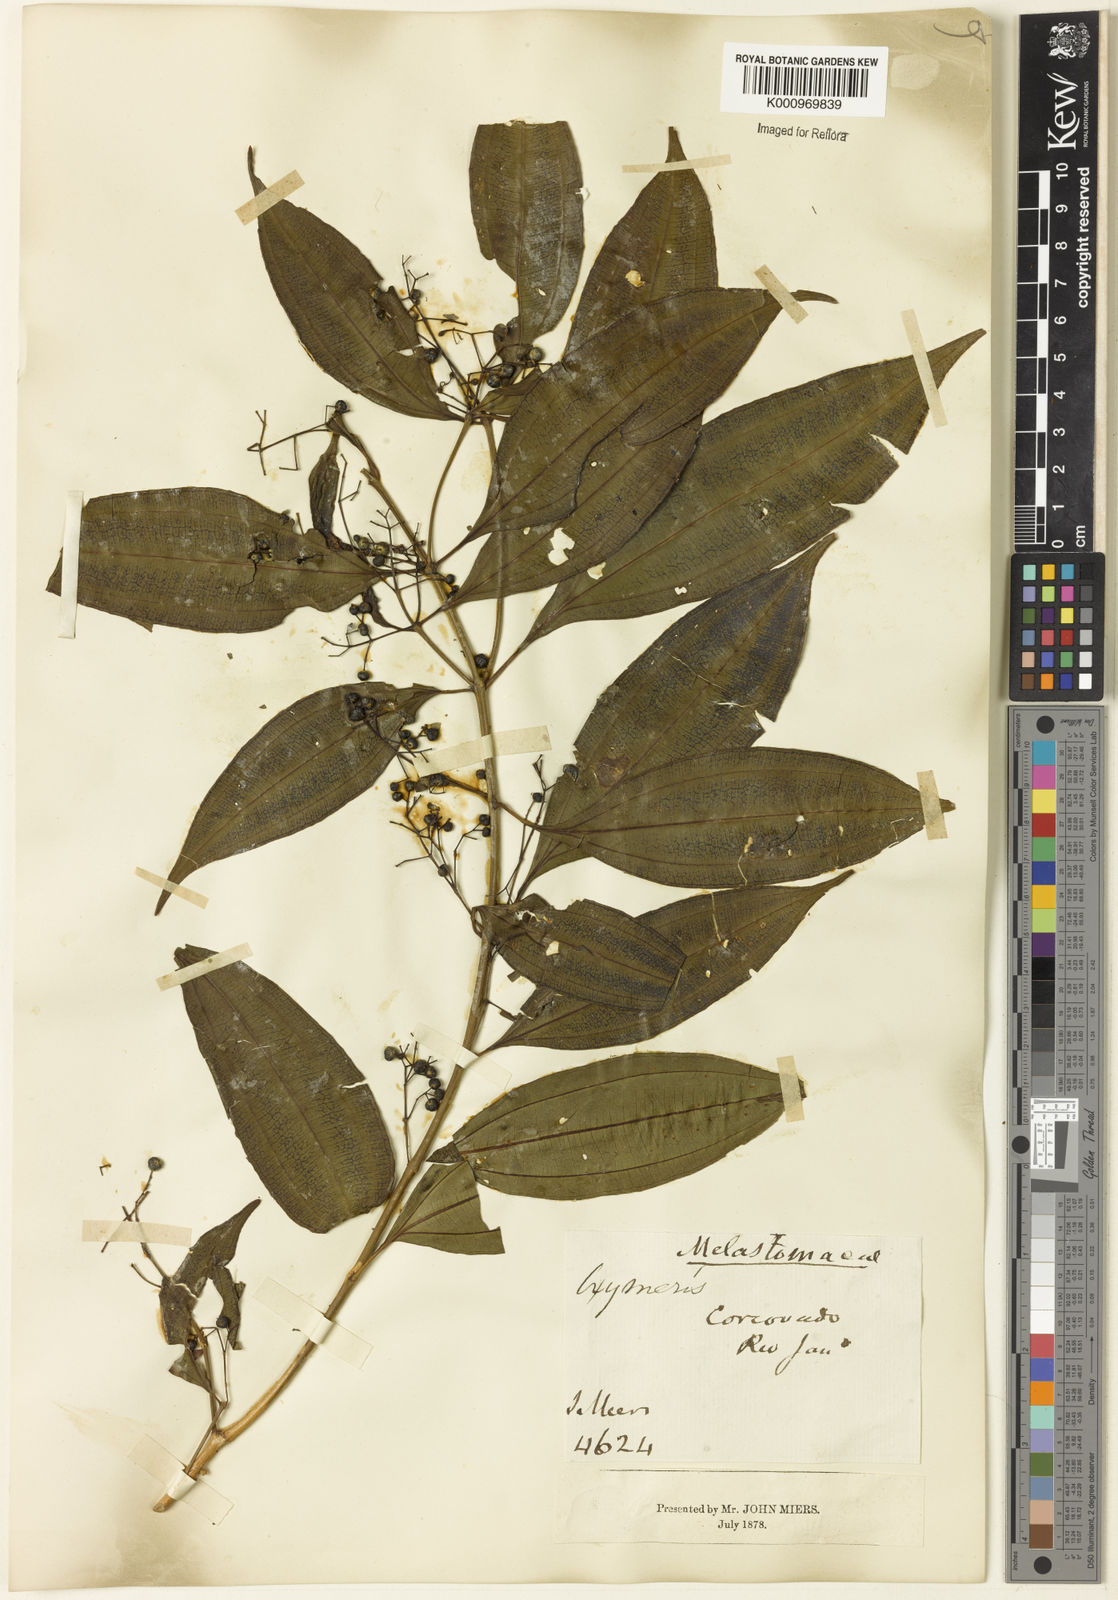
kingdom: Plantae
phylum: Tracheophyta
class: Magnoliopsida
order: Myrtales
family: Melastomataceae
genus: Miconia
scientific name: Miconia
